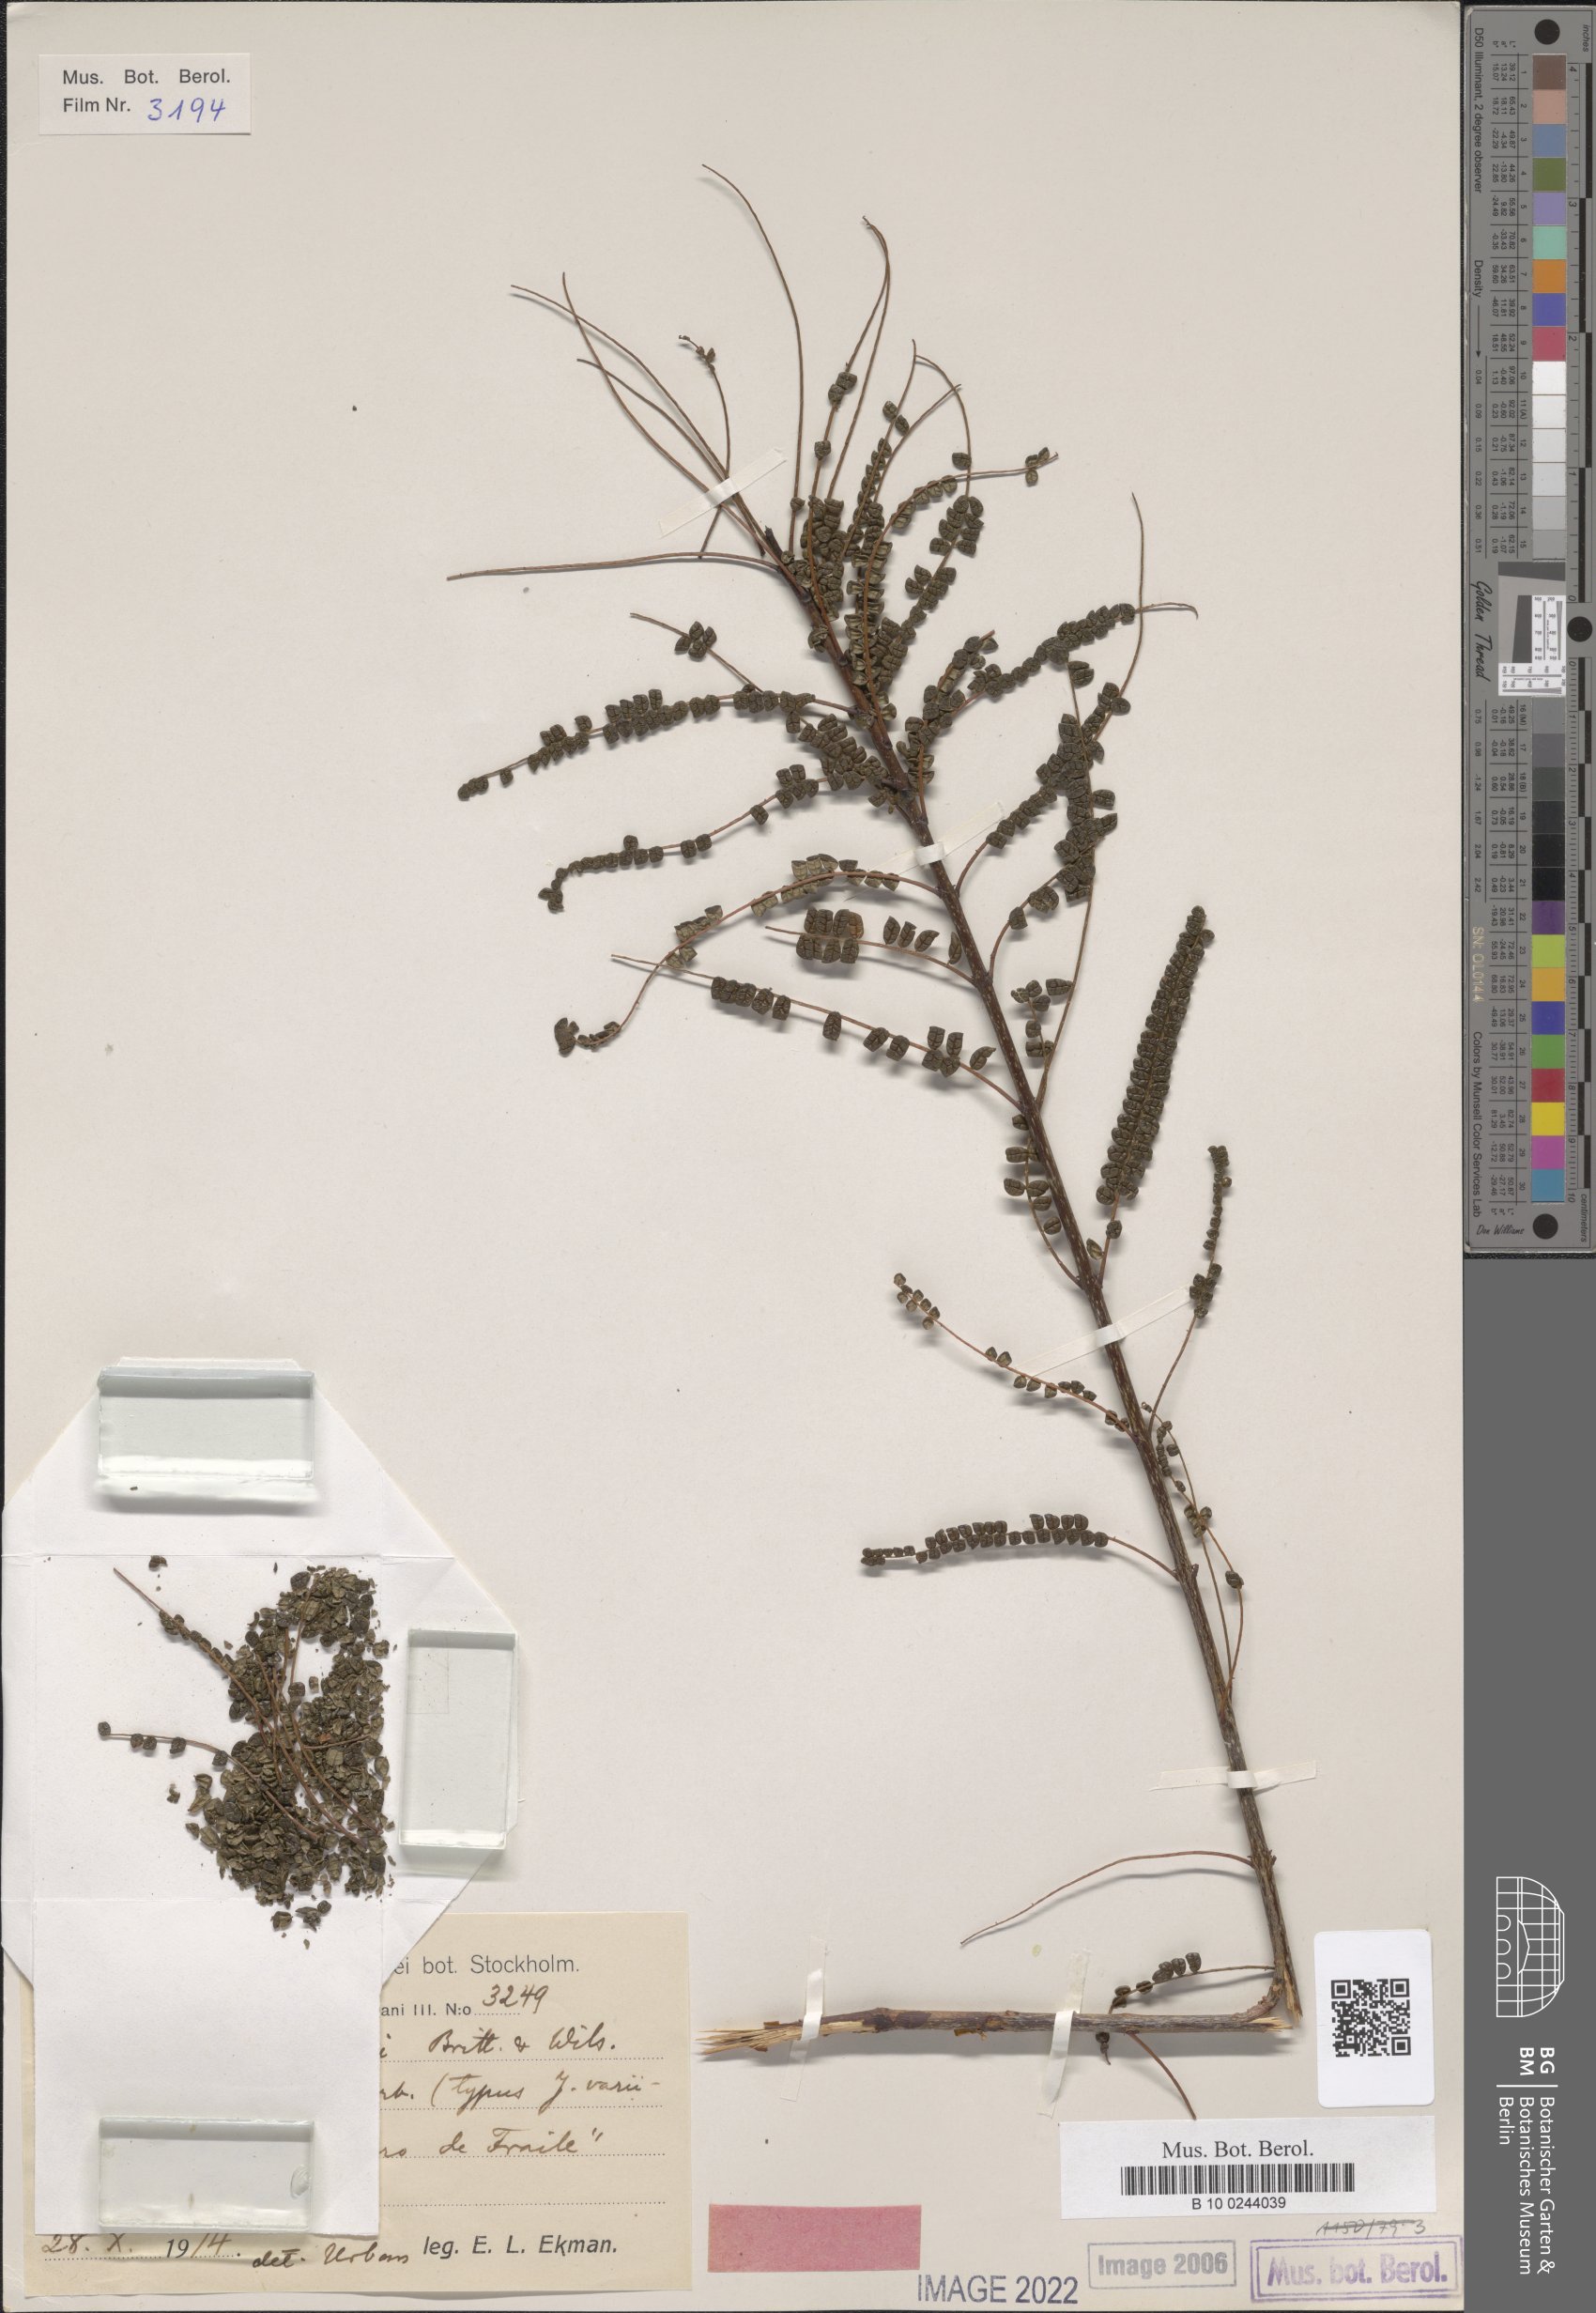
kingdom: Plantae
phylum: Tracheophyta
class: Magnoliopsida
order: Lamiales
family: Bignoniaceae
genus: Jacaranda
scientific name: Jacaranda cowellii
